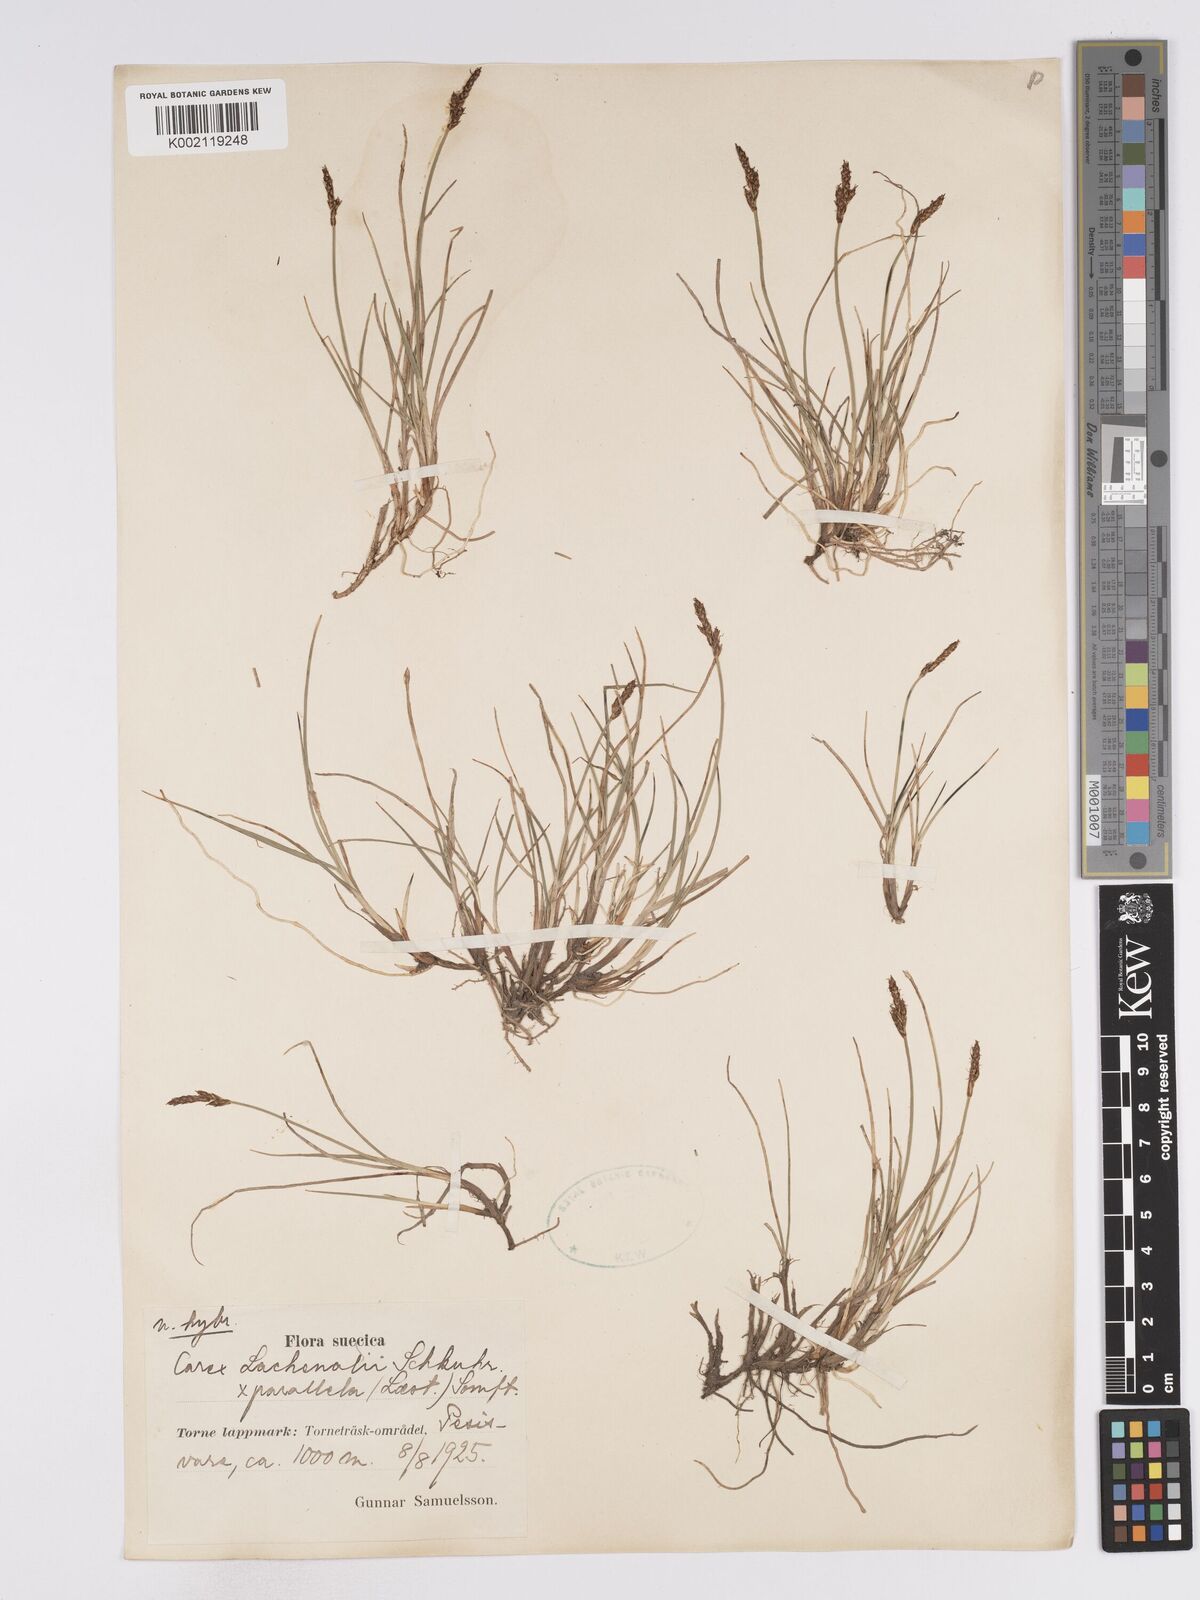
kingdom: Plantae
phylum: Tracheophyta
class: Liliopsida
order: Poales
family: Cyperaceae
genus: Carex
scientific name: Carex lachenalii
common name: Hare's-foot sedge
